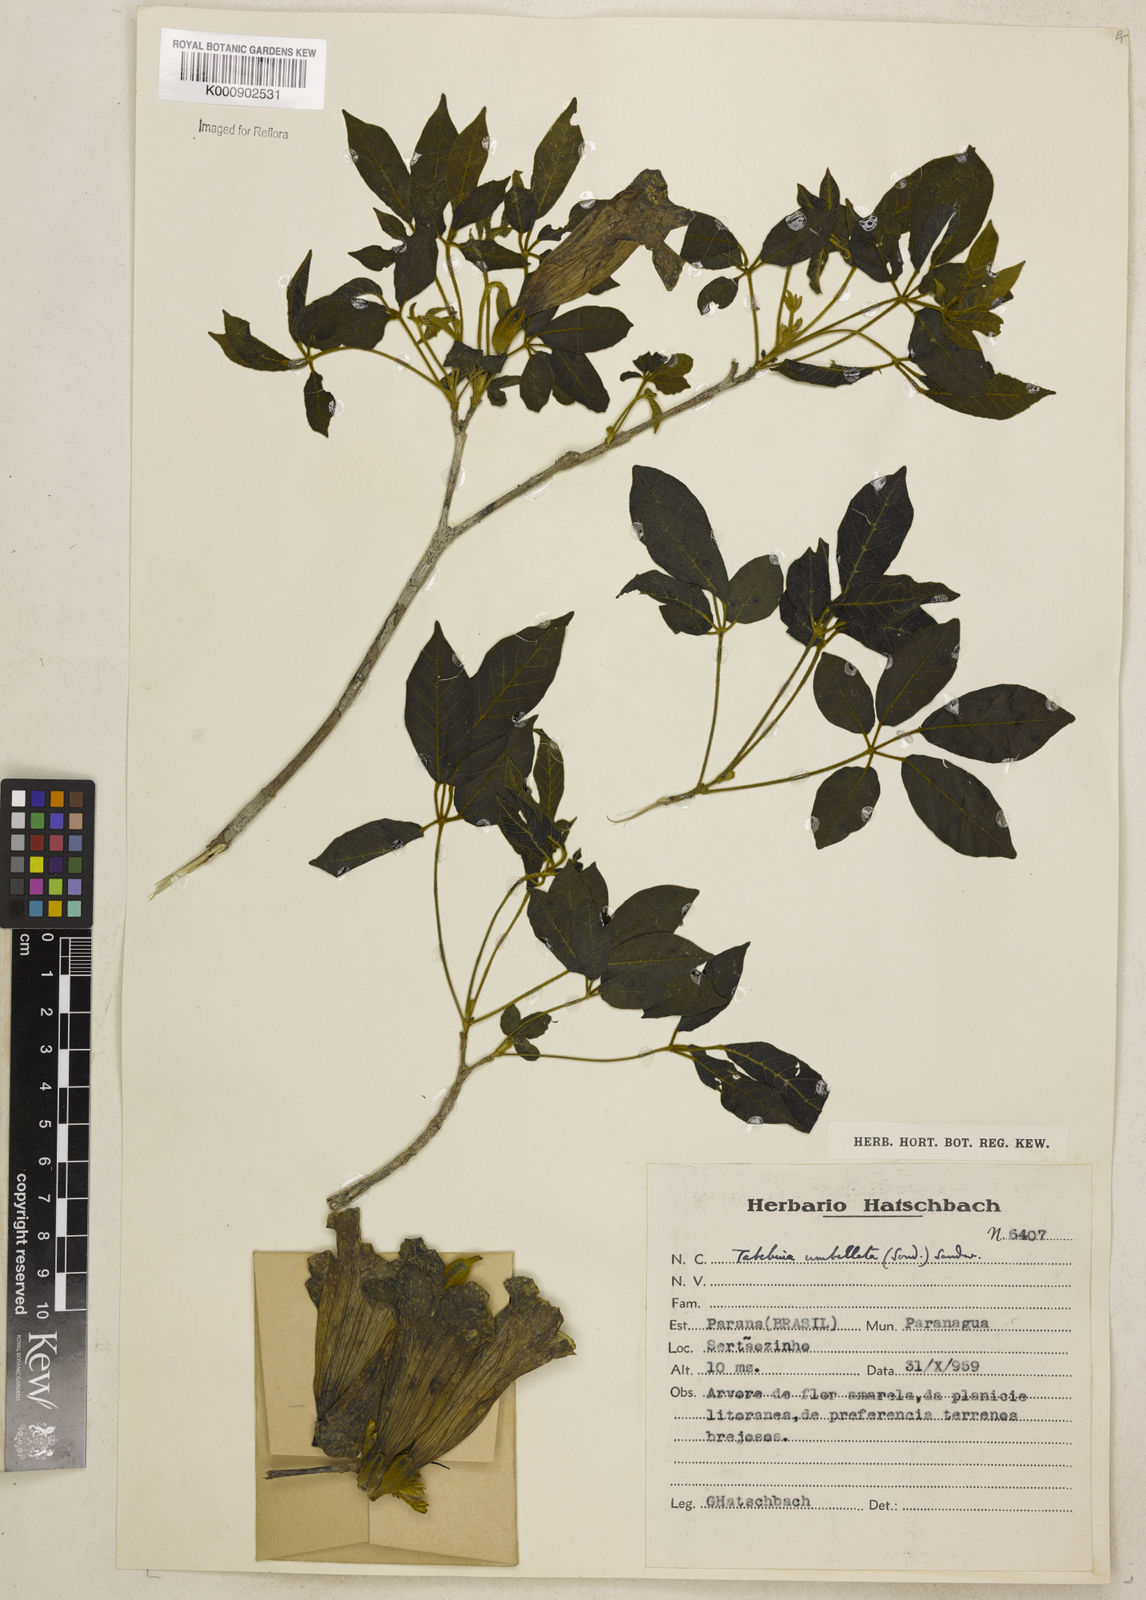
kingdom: Plantae
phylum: Tracheophyta
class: Magnoliopsida
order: Lamiales
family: Bignoniaceae
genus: Handroanthus
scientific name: Handroanthus umbellatus
